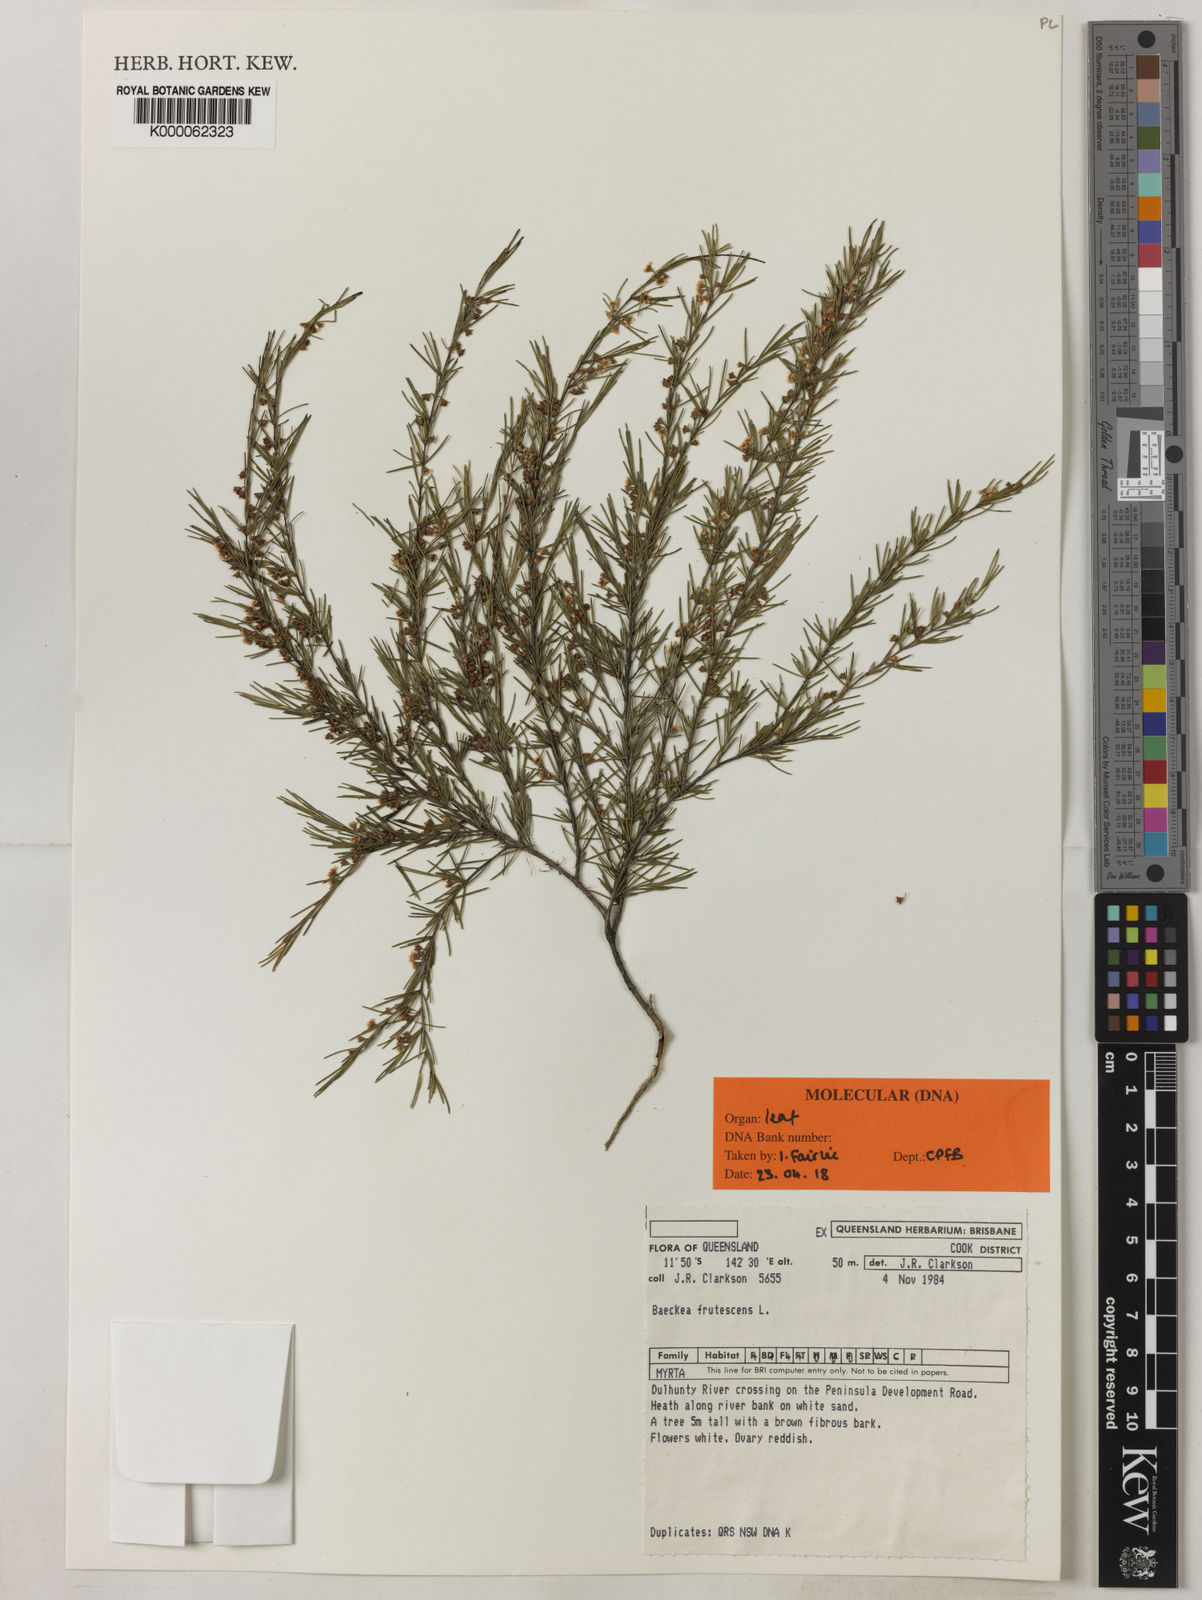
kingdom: Plantae
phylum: Tracheophyta
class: Magnoliopsida
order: Myrtales
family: Myrtaceae
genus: Baeckea
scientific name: Baeckea frutescens
